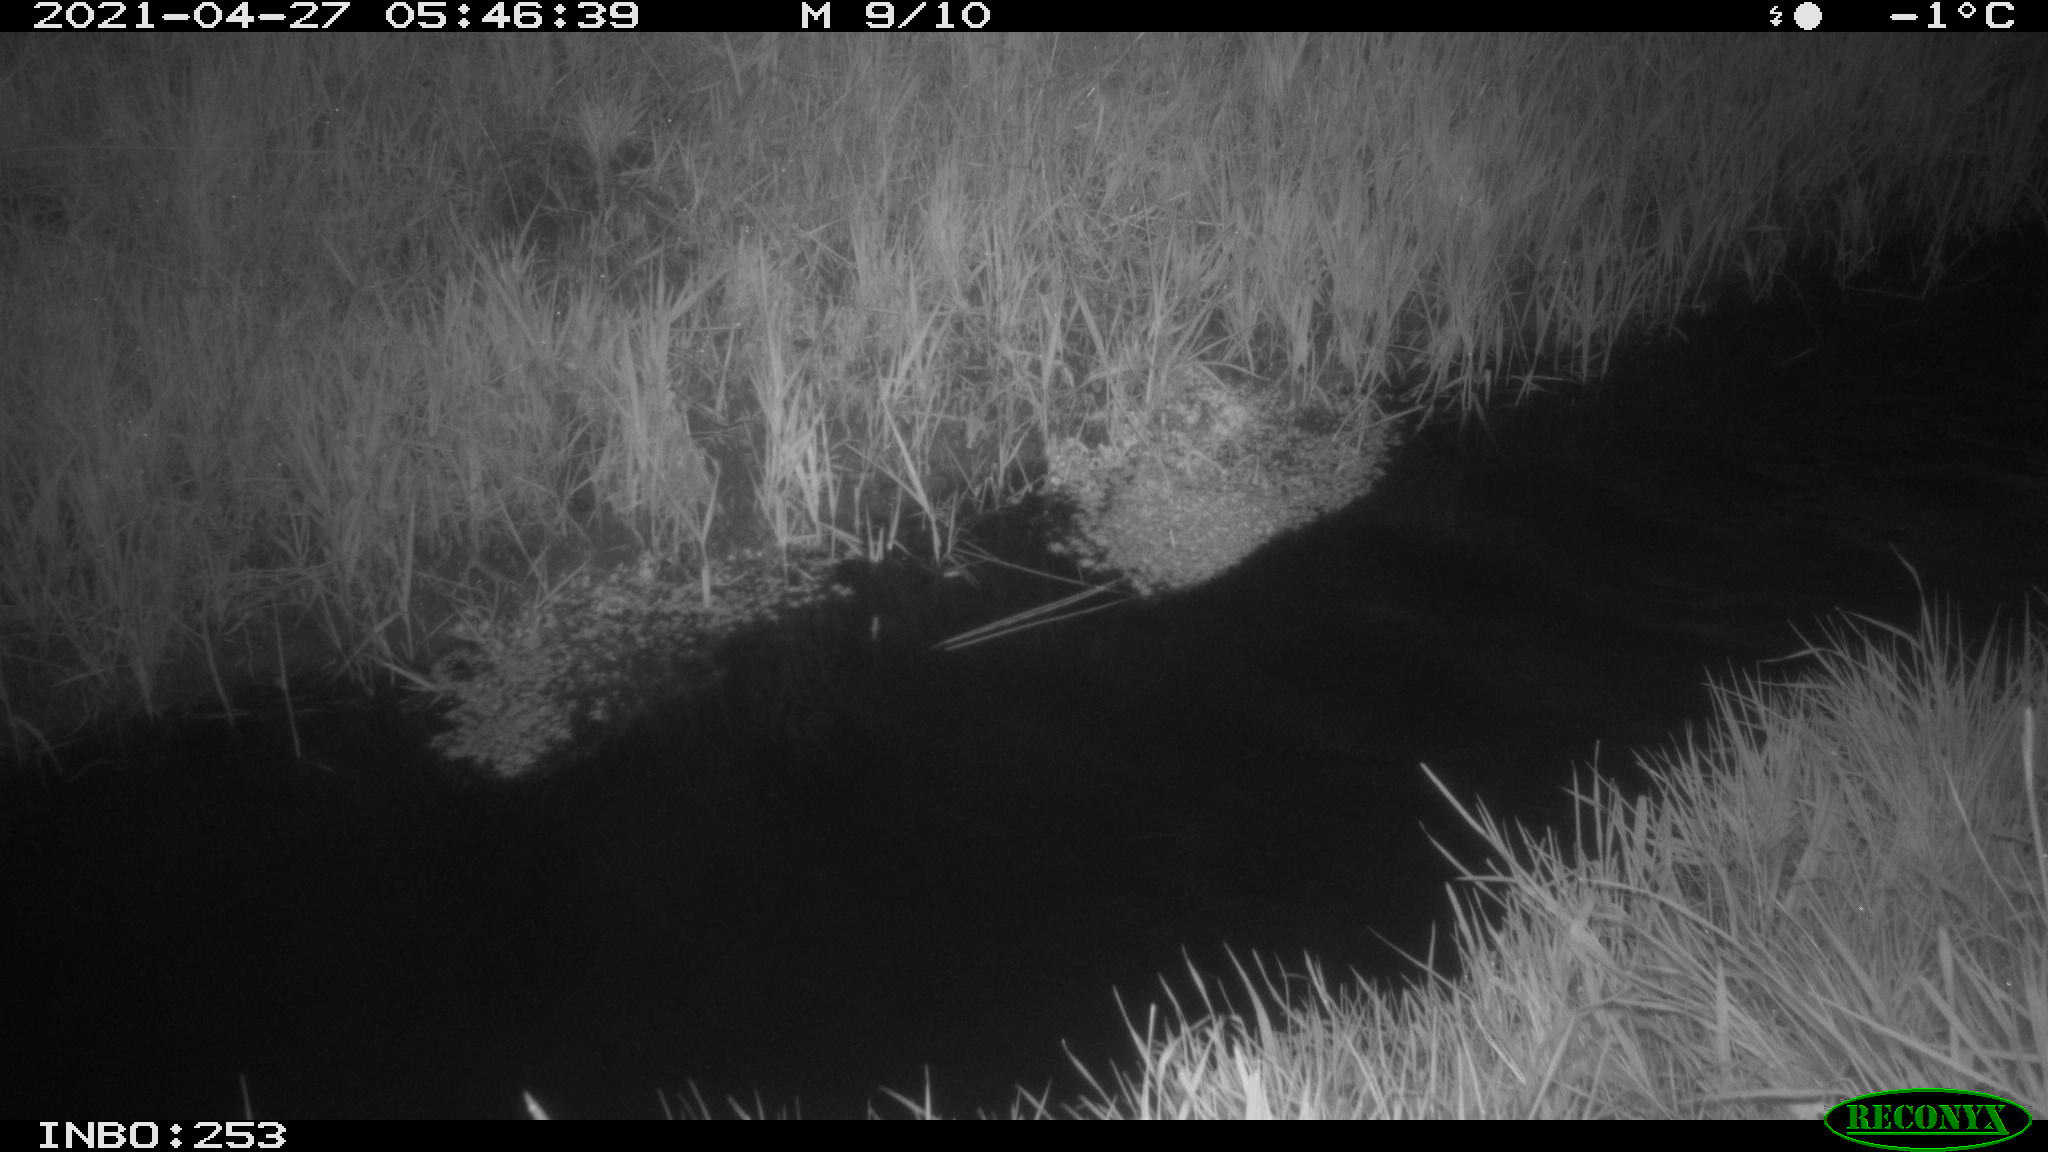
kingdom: Animalia
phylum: Chordata
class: Aves
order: Anseriformes
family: Anatidae
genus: Anas
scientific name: Anas platyrhynchos
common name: Mallard
